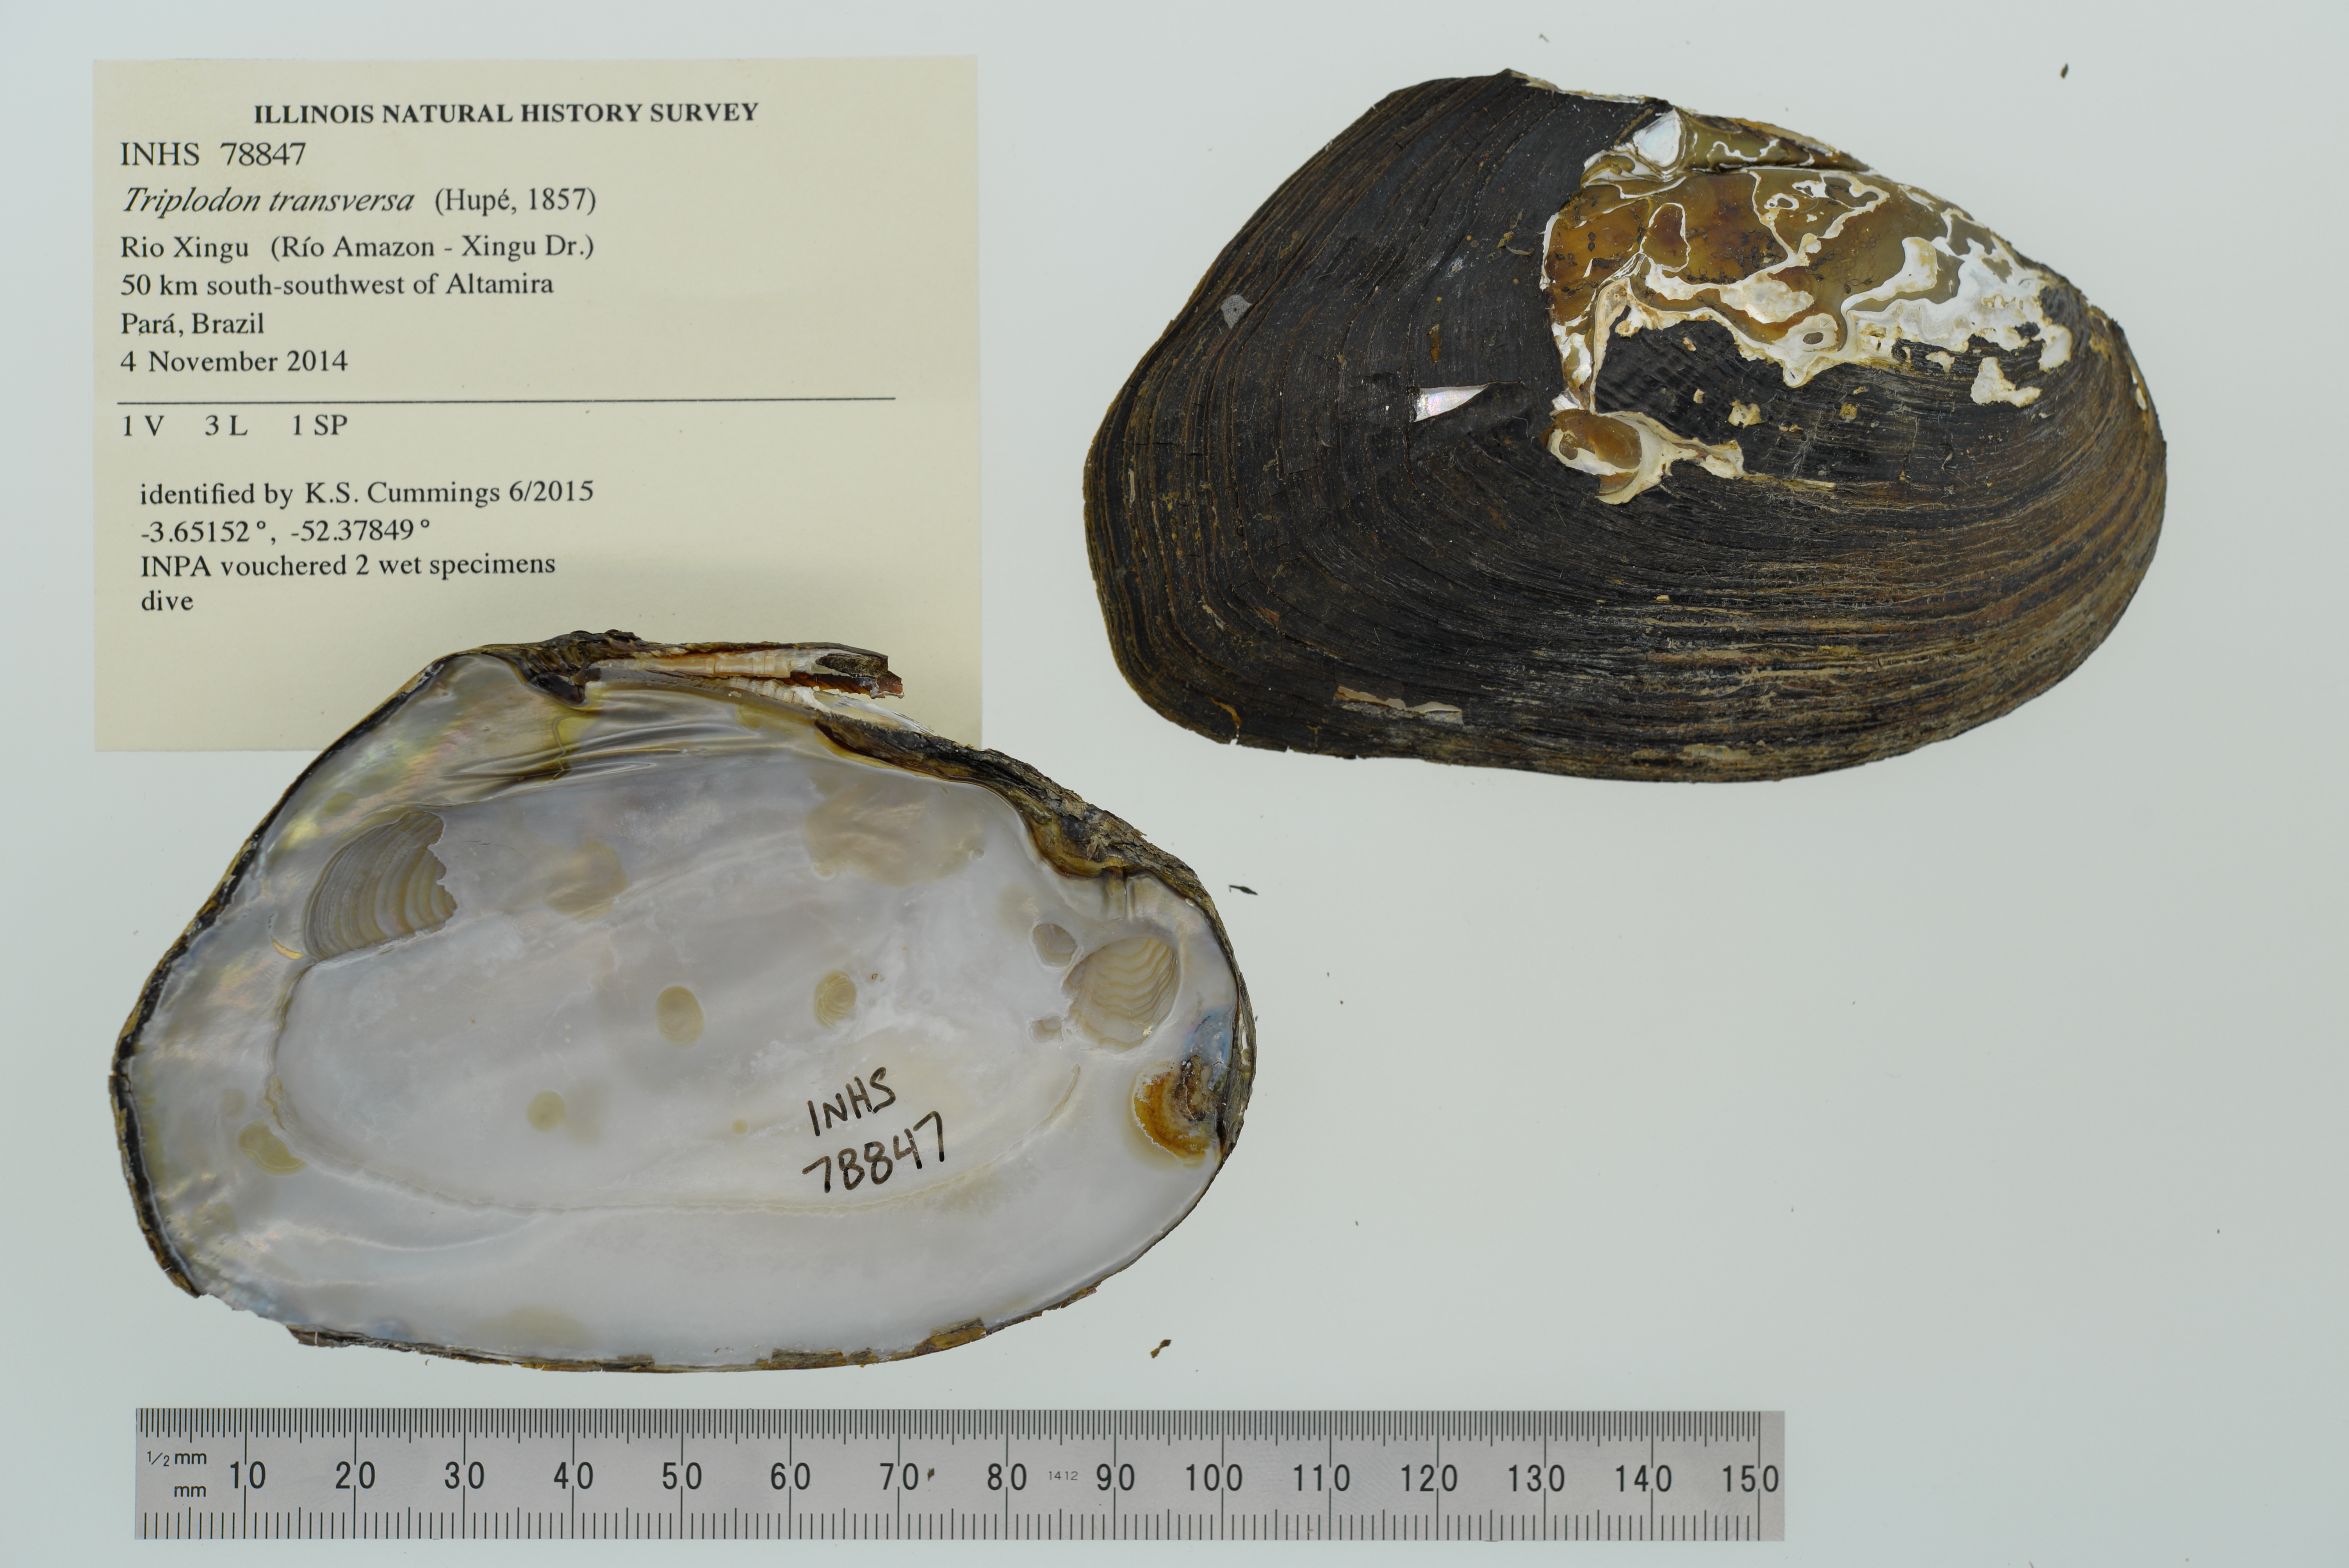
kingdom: Animalia
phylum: Mollusca
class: Bivalvia
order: Unionida
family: Hyriidae
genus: Triplodon
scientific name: Triplodon
